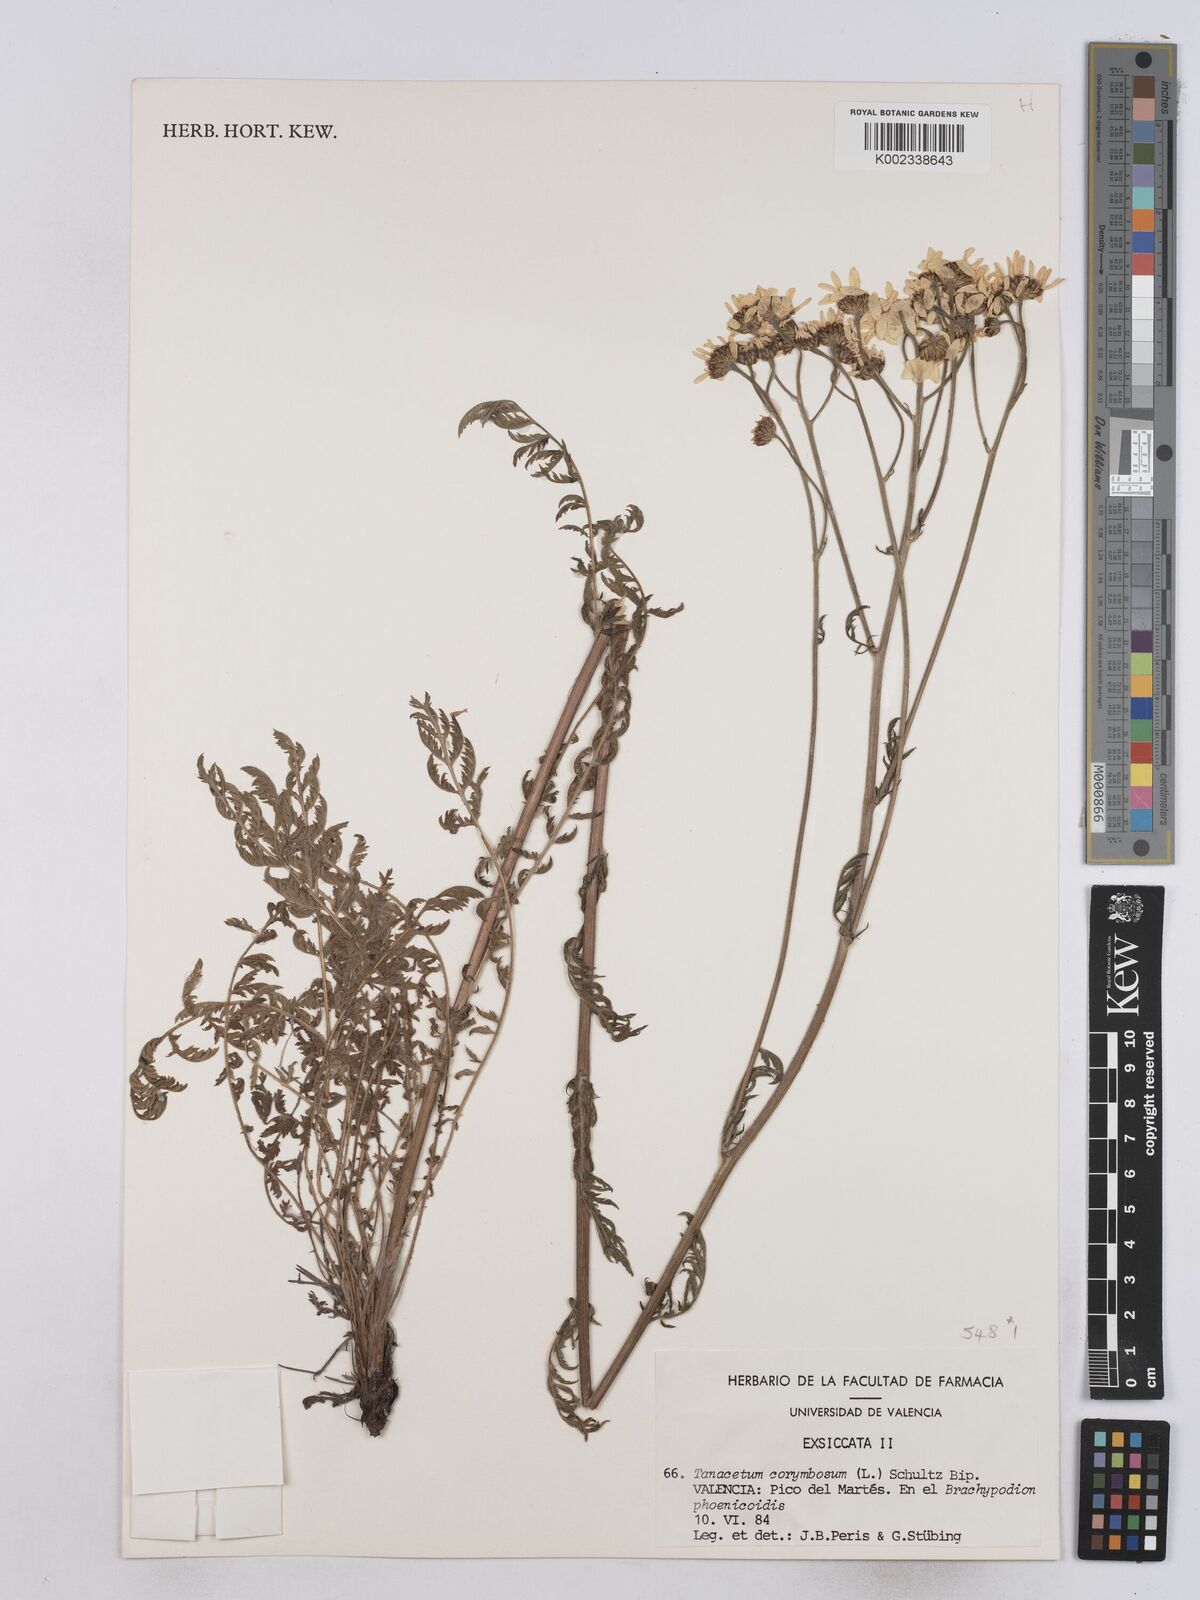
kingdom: Plantae
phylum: Tracheophyta
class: Magnoliopsida
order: Asterales
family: Asteraceae
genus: Tanacetum
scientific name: Tanacetum corymbosum
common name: Scentless feverfew
